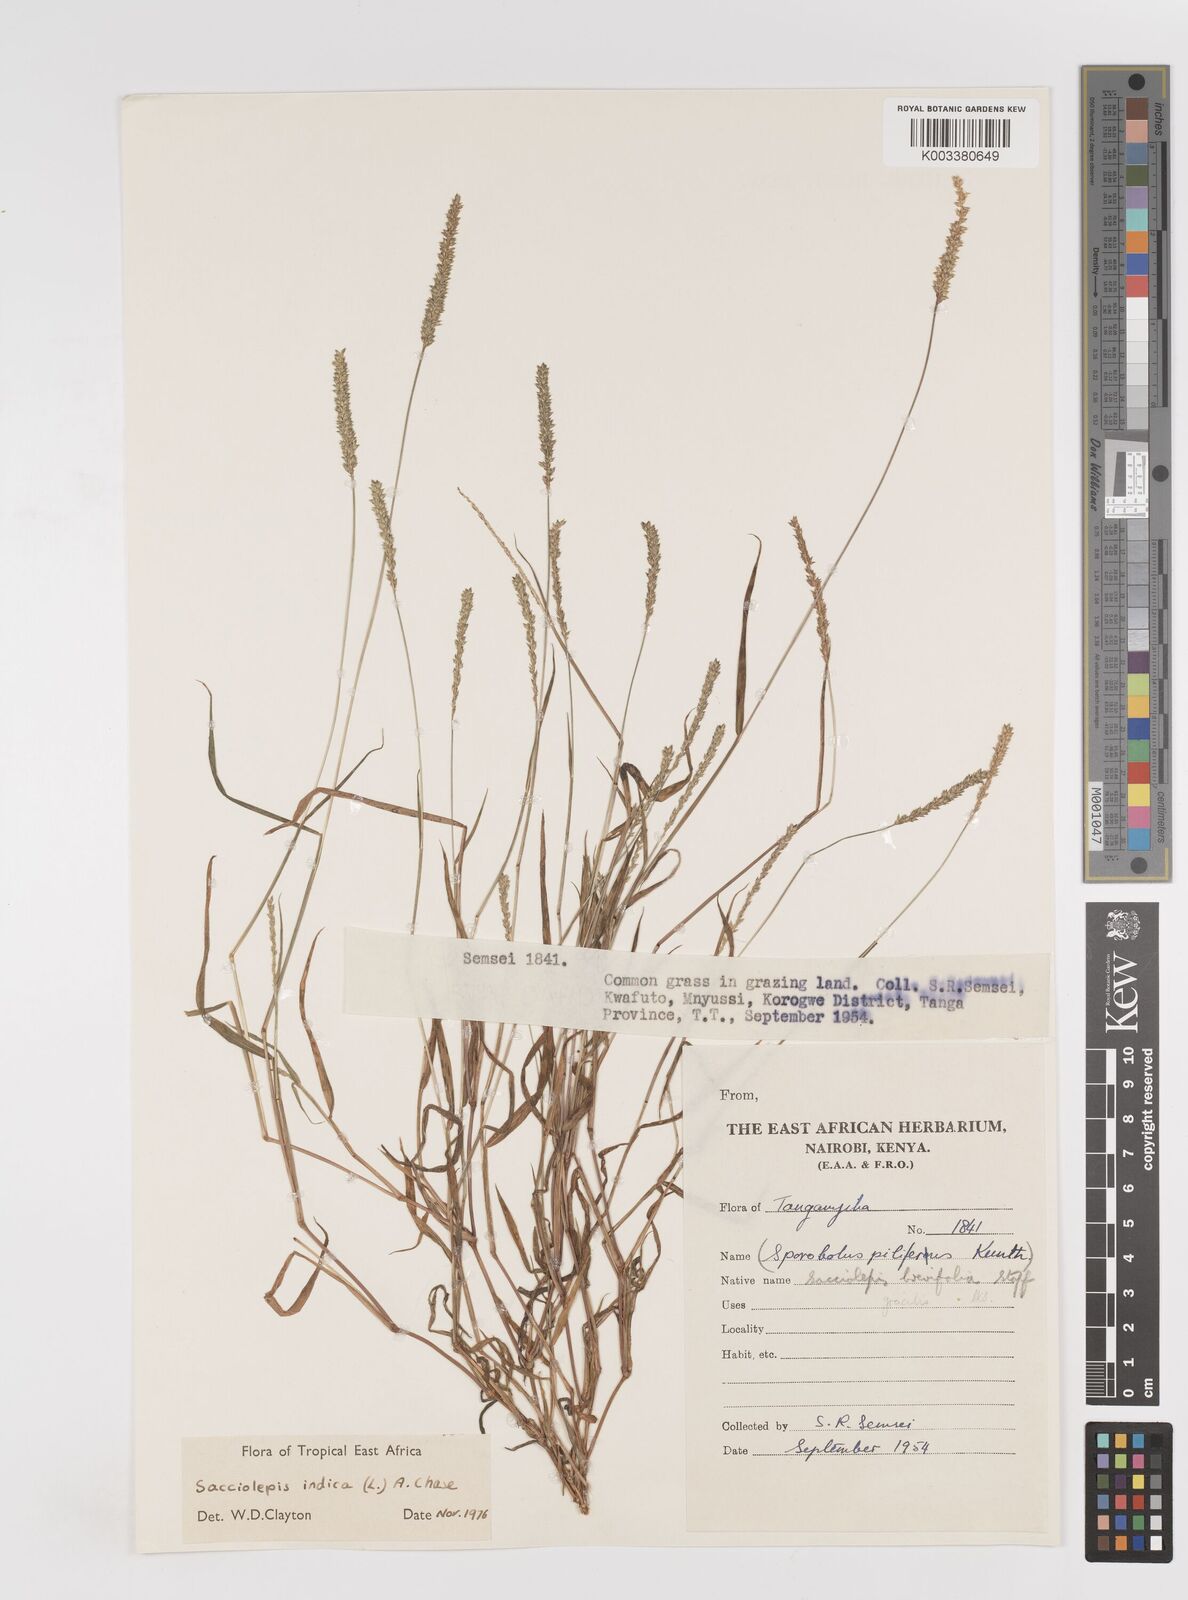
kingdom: Plantae
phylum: Tracheophyta
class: Liliopsida
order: Poales
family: Poaceae
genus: Sacciolepis
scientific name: Sacciolepis indica
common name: Glenwoodgrass
